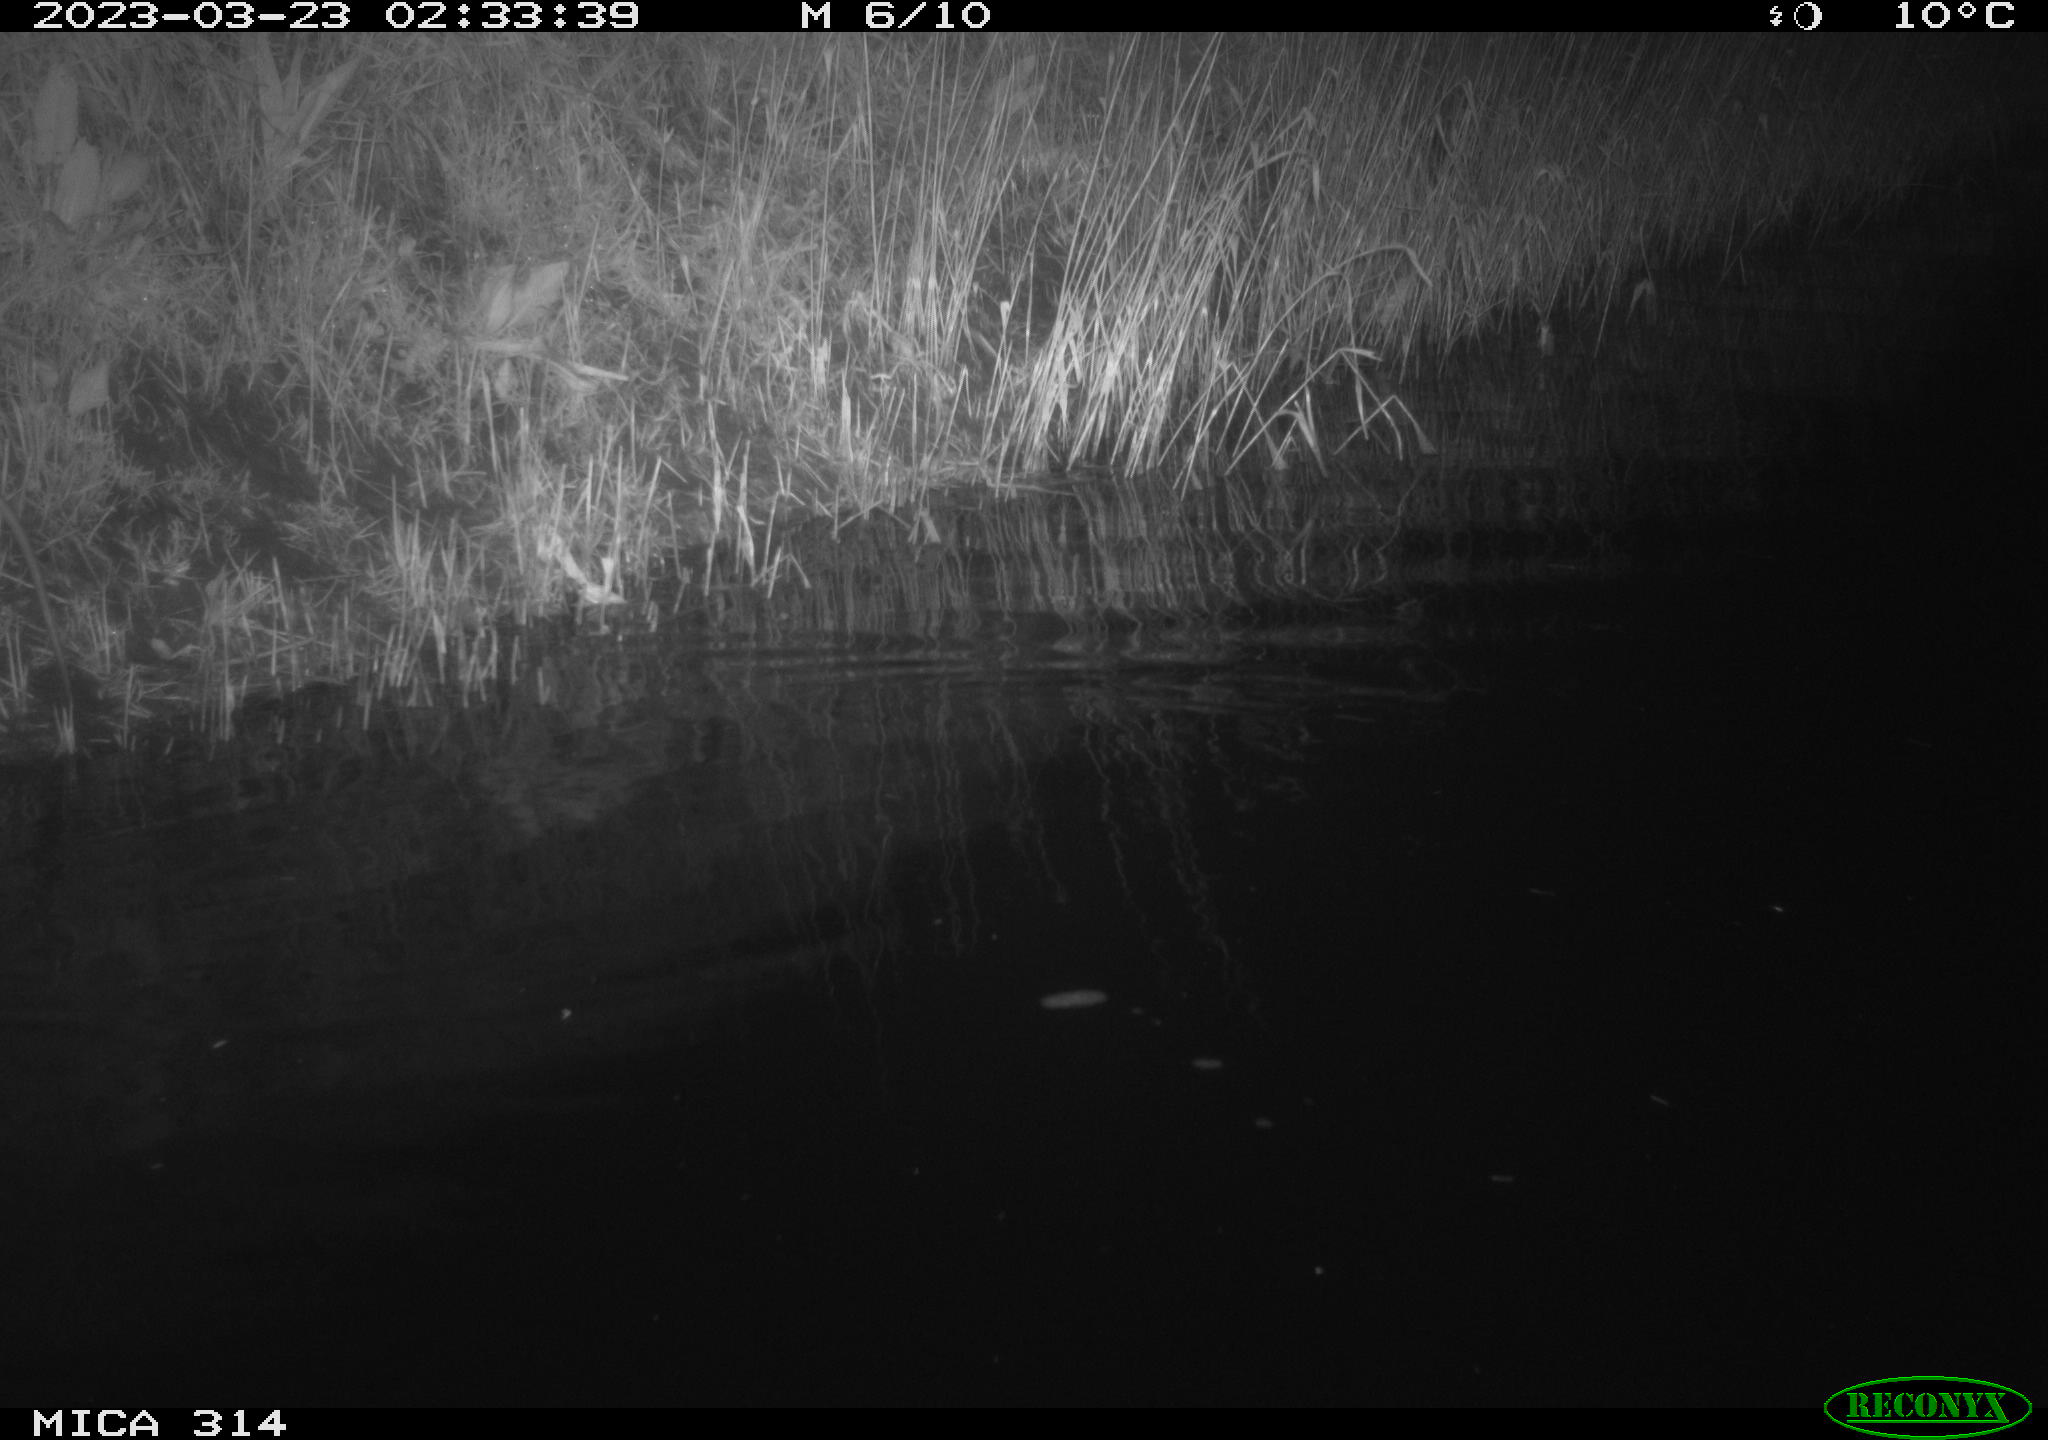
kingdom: Animalia
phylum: Chordata
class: Mammalia
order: Rodentia
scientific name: Rodentia
